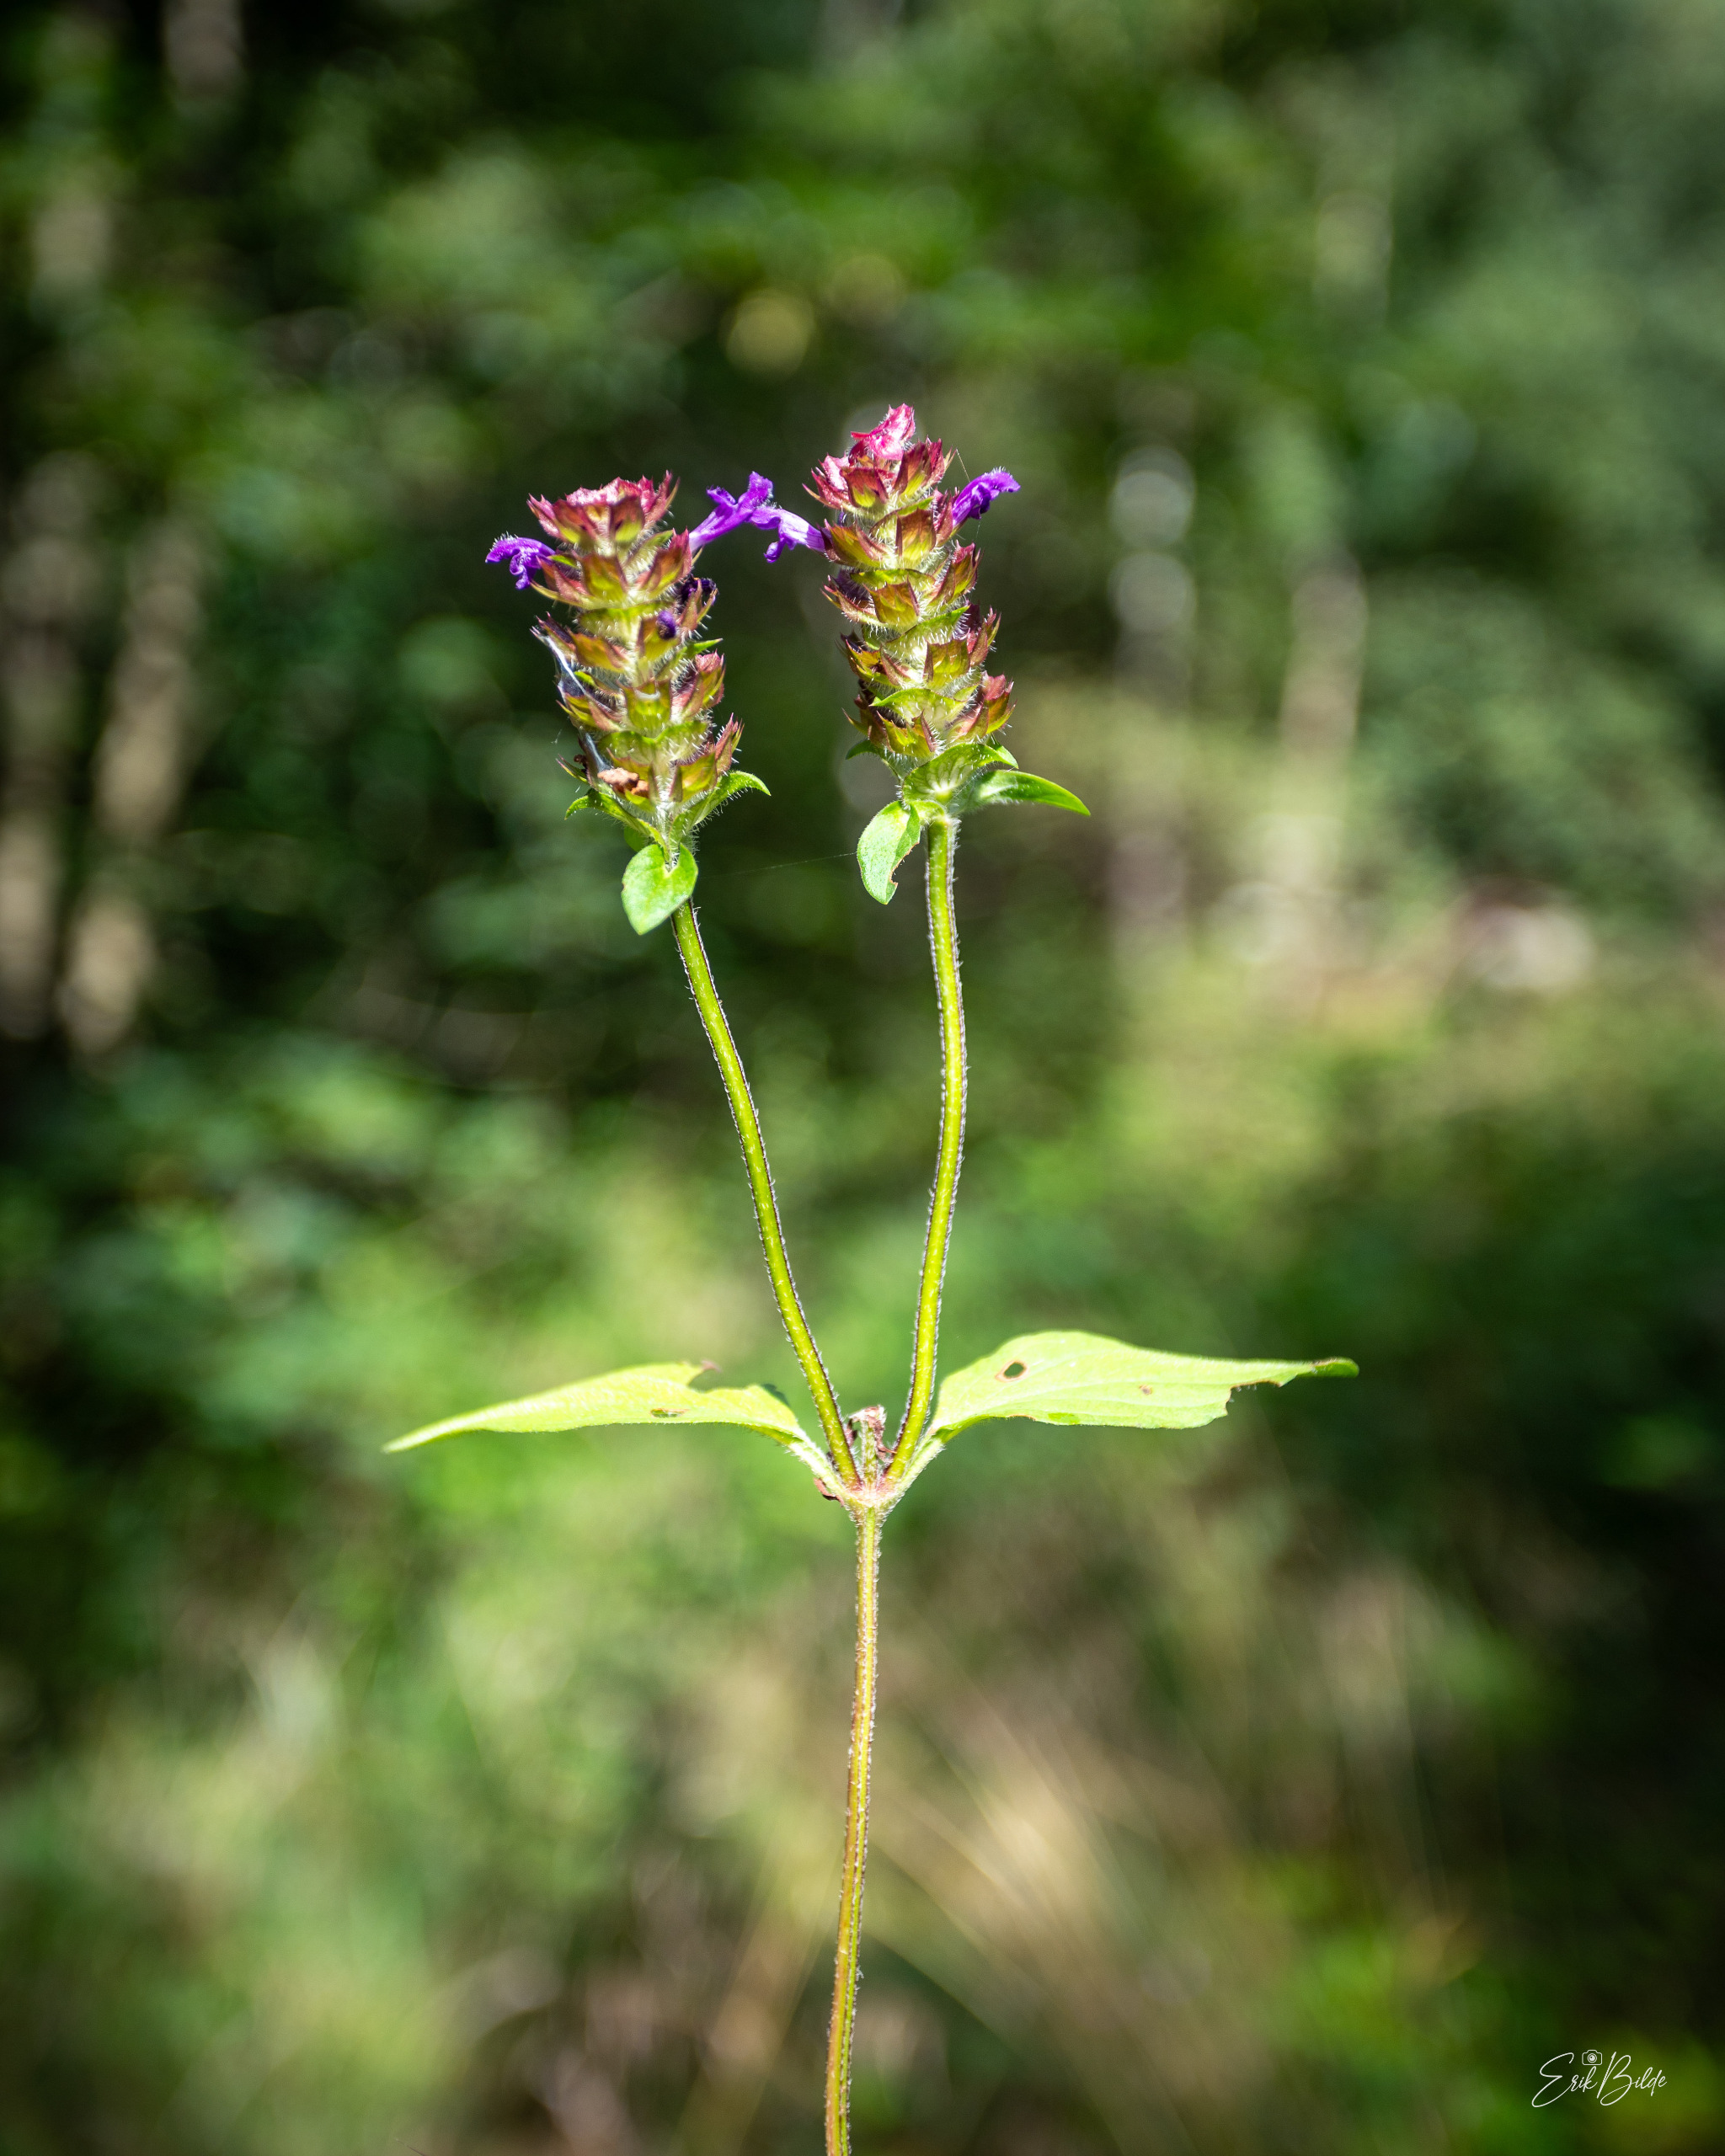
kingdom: Plantae
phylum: Tracheophyta
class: Magnoliopsida
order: Lamiales
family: Lamiaceae
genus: Prunella
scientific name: Prunella vulgaris
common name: Almindelig brunelle
